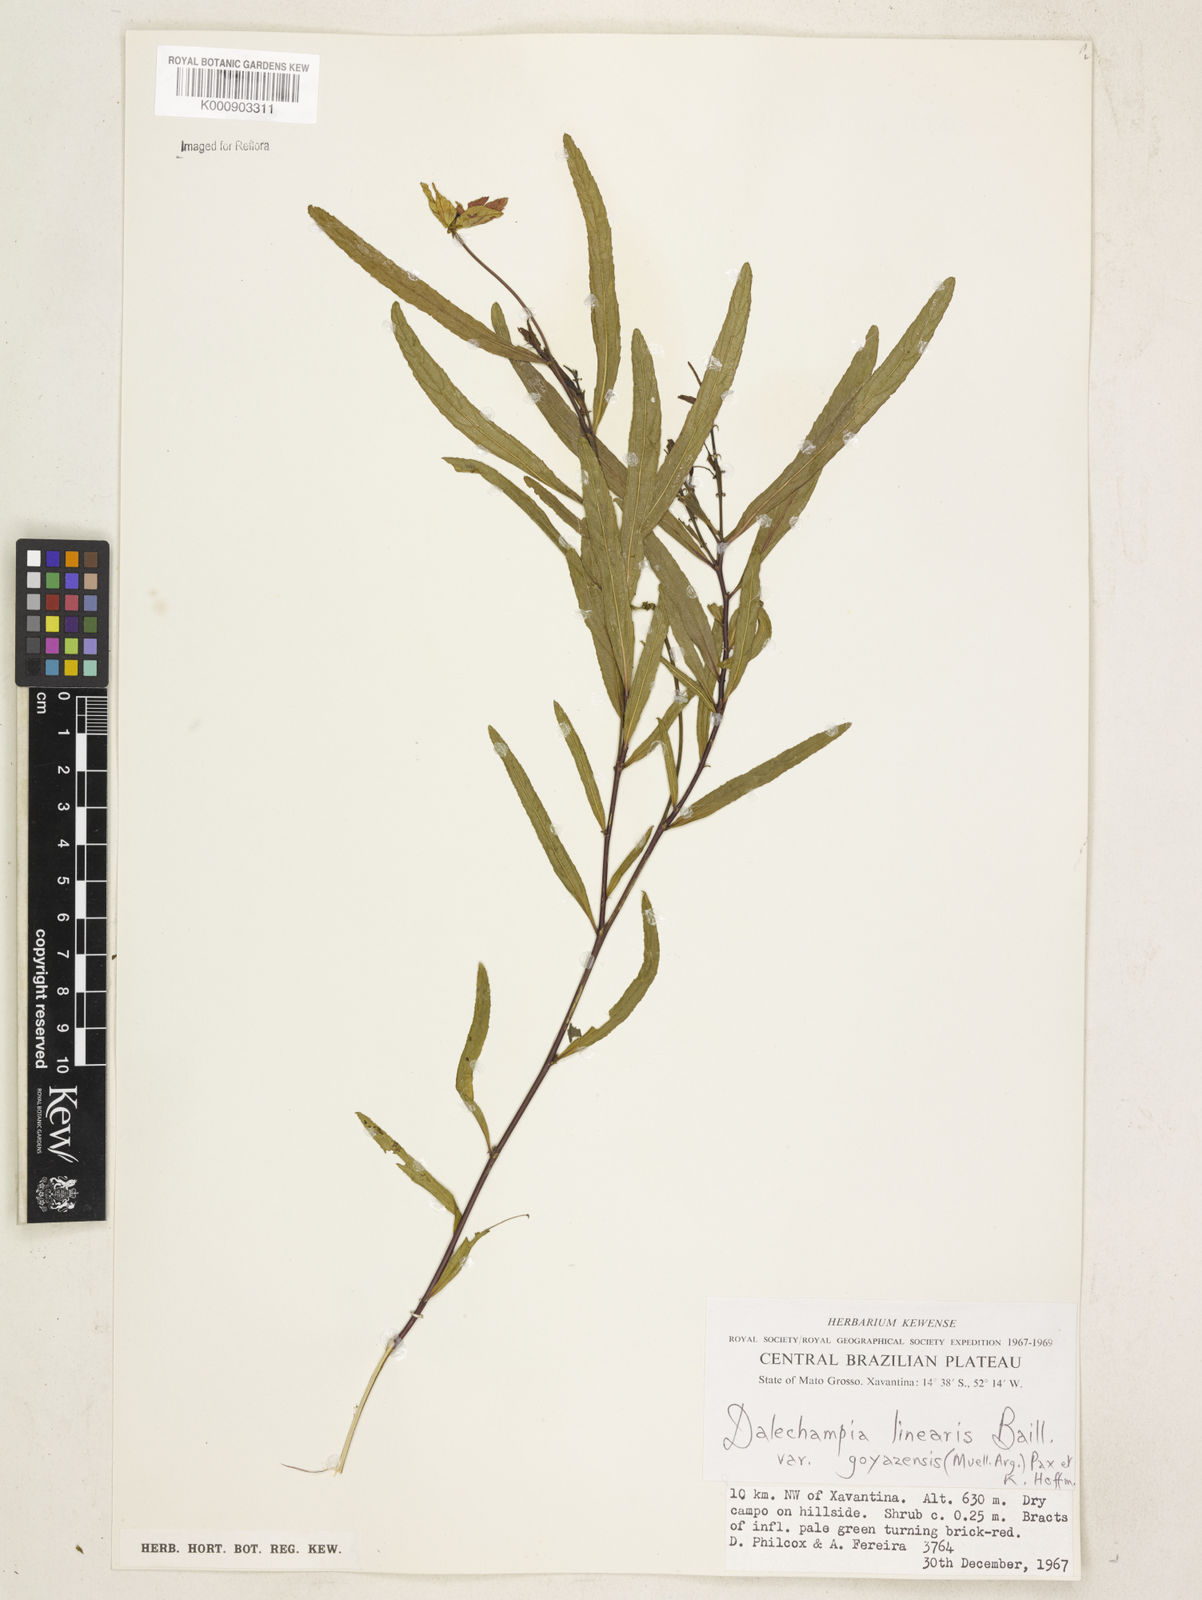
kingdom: Plantae
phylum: Tracheophyta
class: Magnoliopsida
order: Malpighiales
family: Euphorbiaceae
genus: Dalechampia
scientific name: Dalechampia linearis
